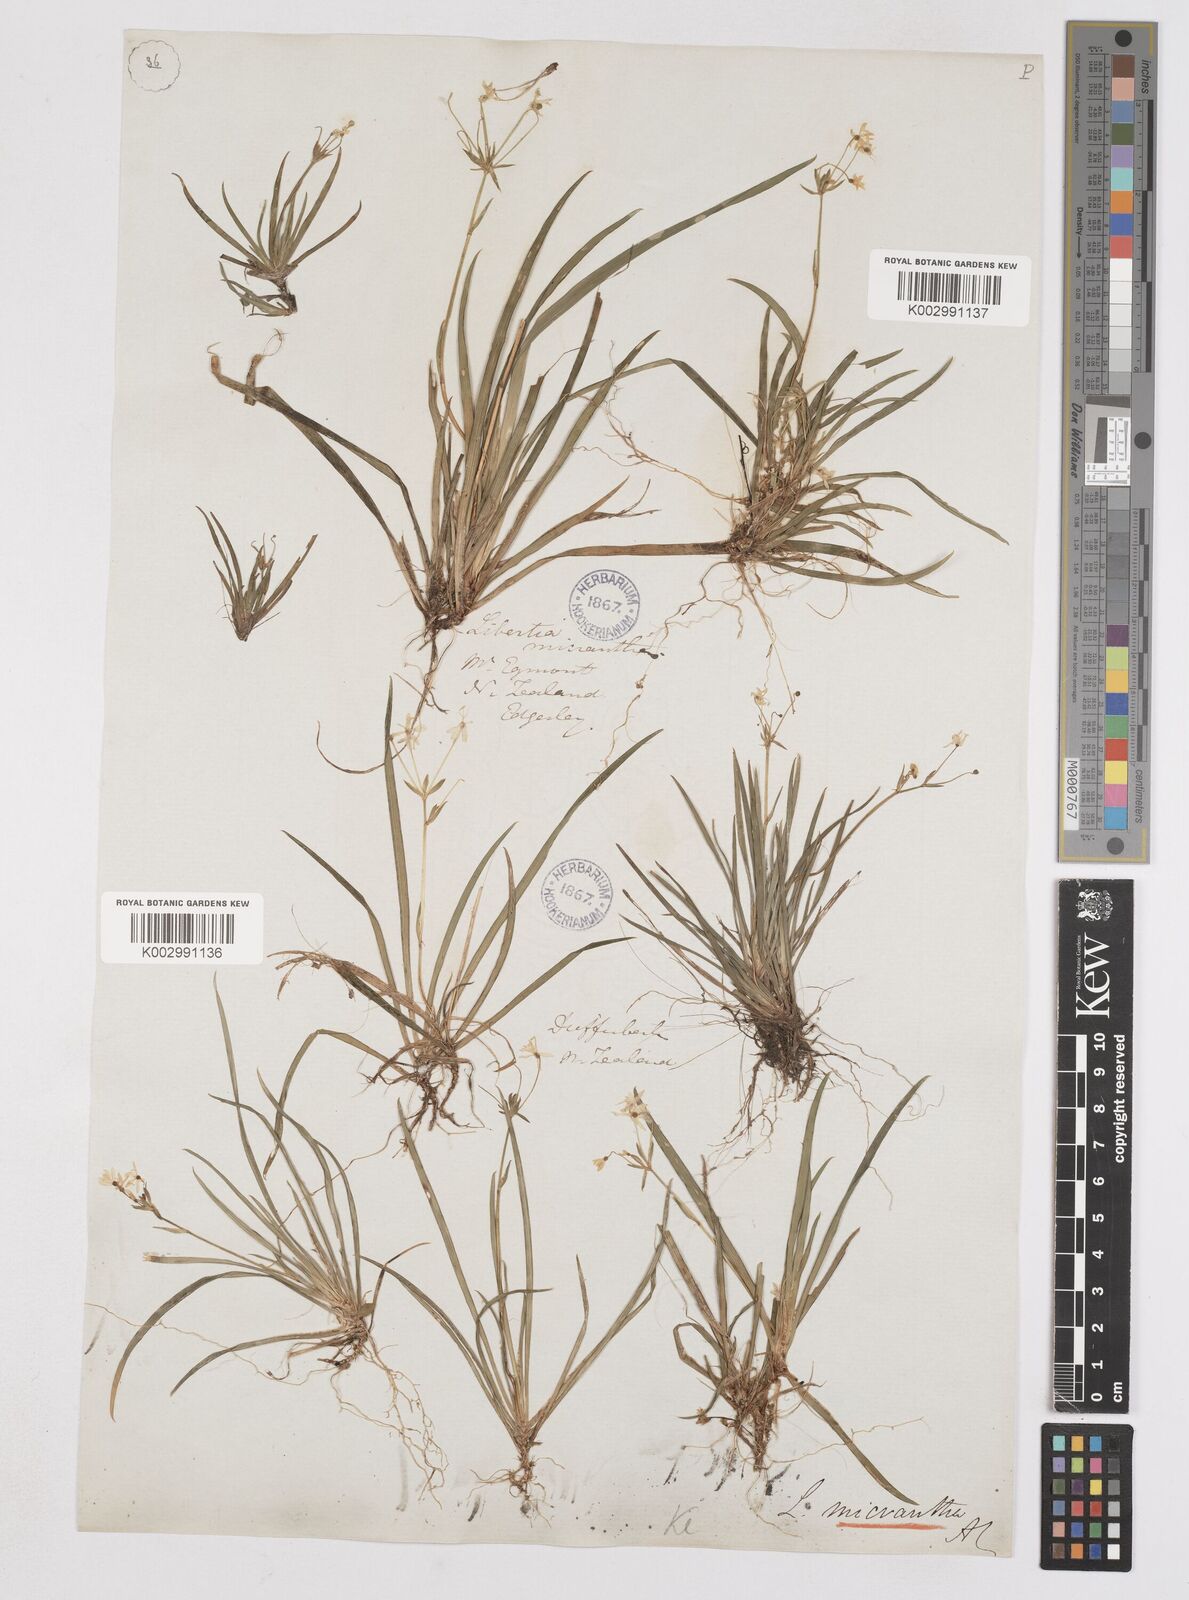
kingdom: Plantae
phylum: Tracheophyta
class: Liliopsida
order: Asparagales
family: Iridaceae
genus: Libertia
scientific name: Libertia pulchella
